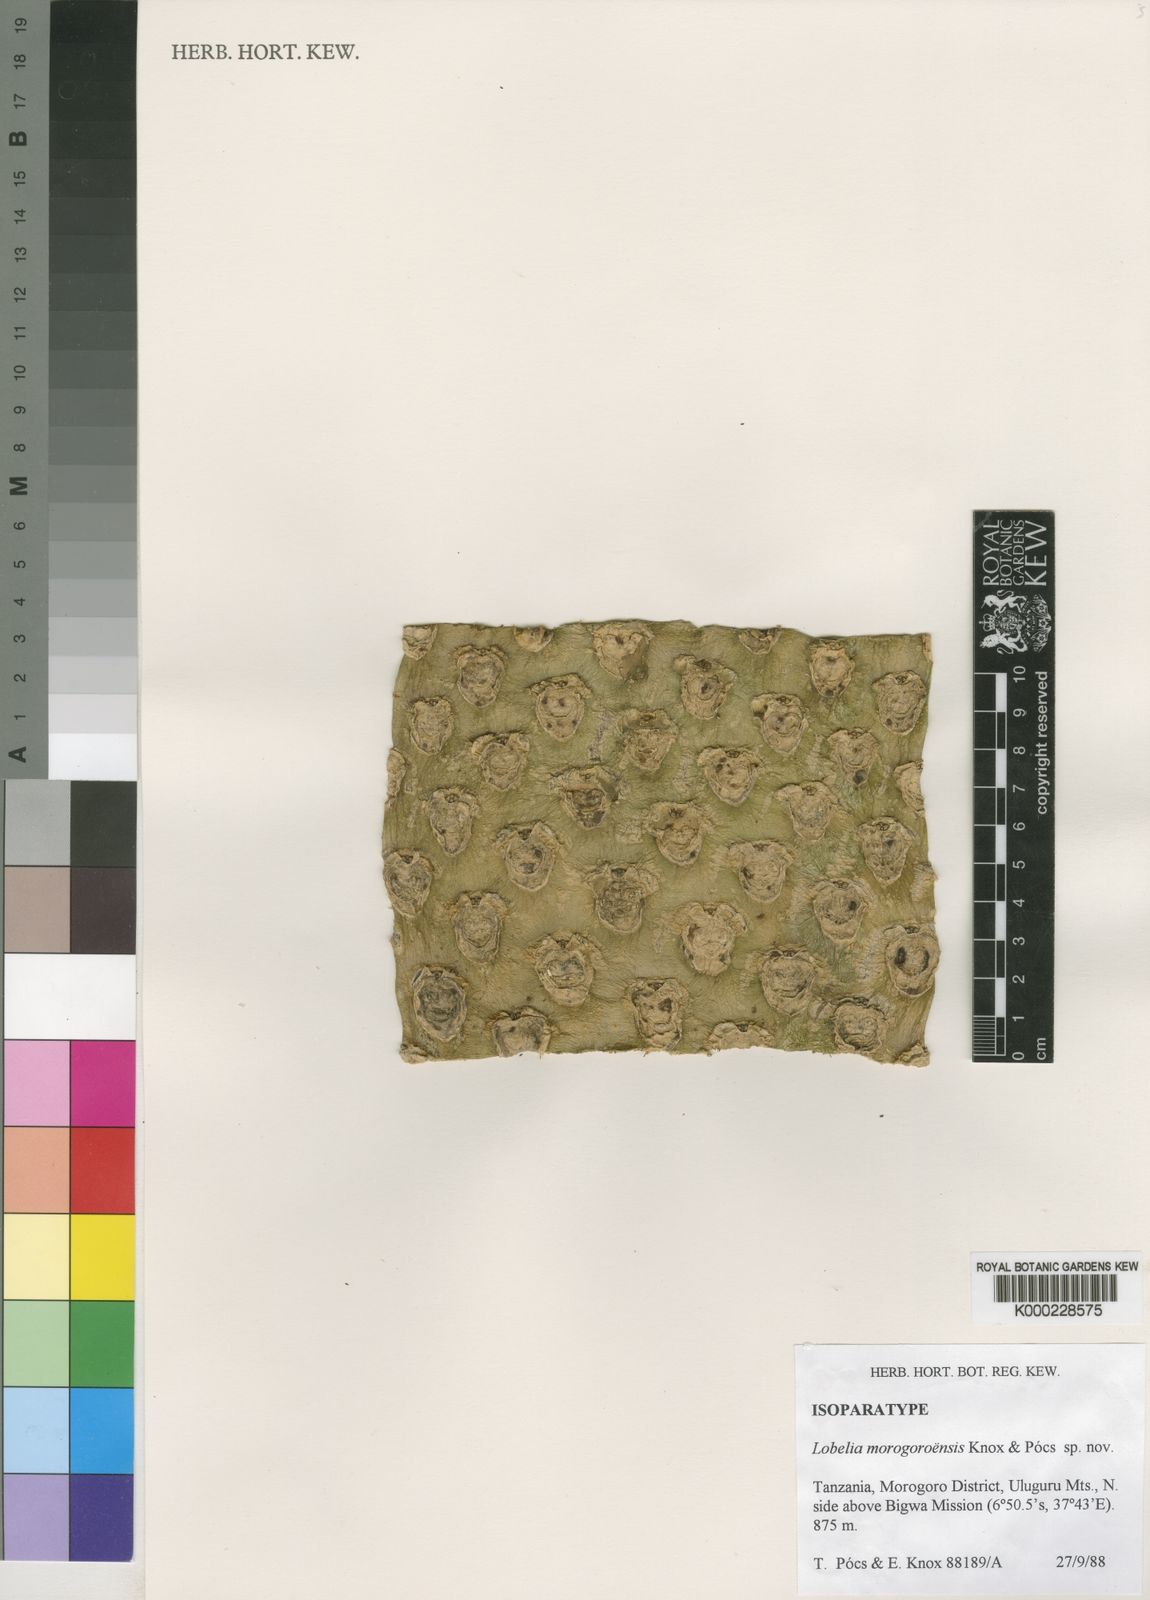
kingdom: Plantae
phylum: Tracheophyta
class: Magnoliopsida
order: Asterales
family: Campanulaceae
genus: Lobelia
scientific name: Lobelia
